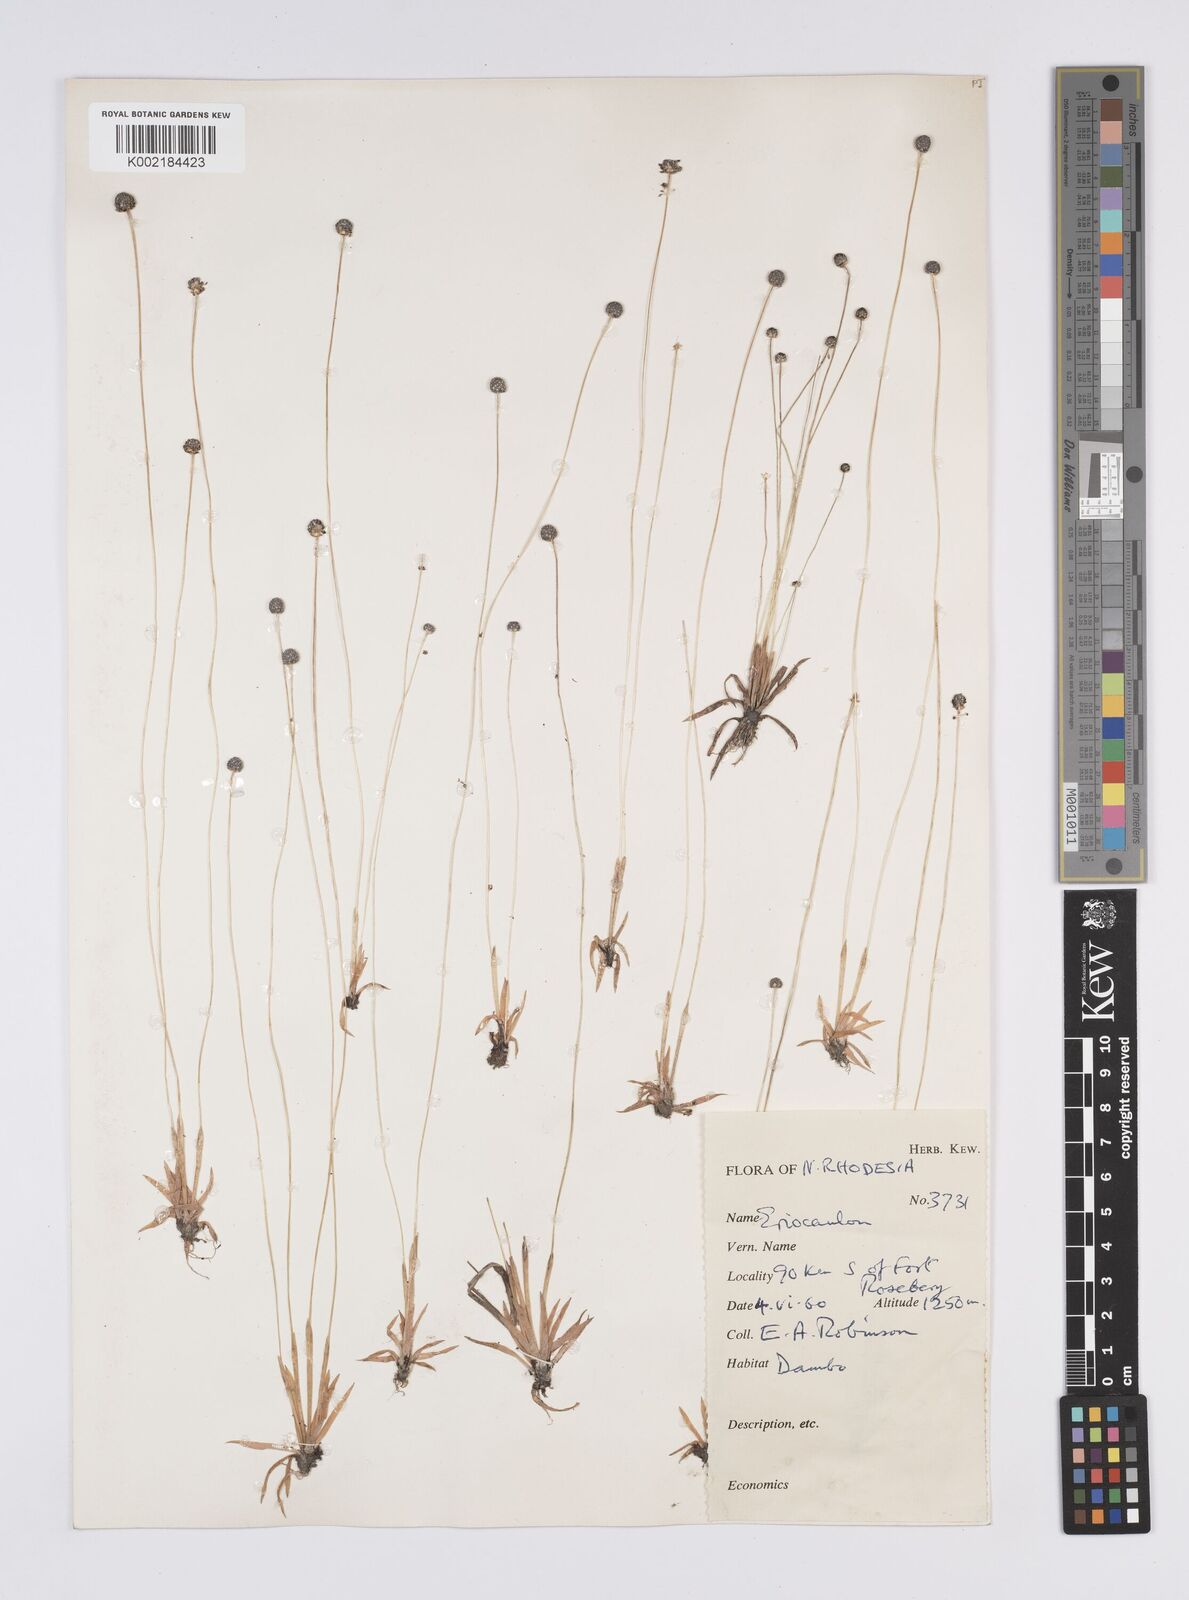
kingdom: Plantae
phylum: Tracheophyta
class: Liliopsida
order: Poales
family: Eriocaulaceae
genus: Eriocaulon
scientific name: Eriocaulon
